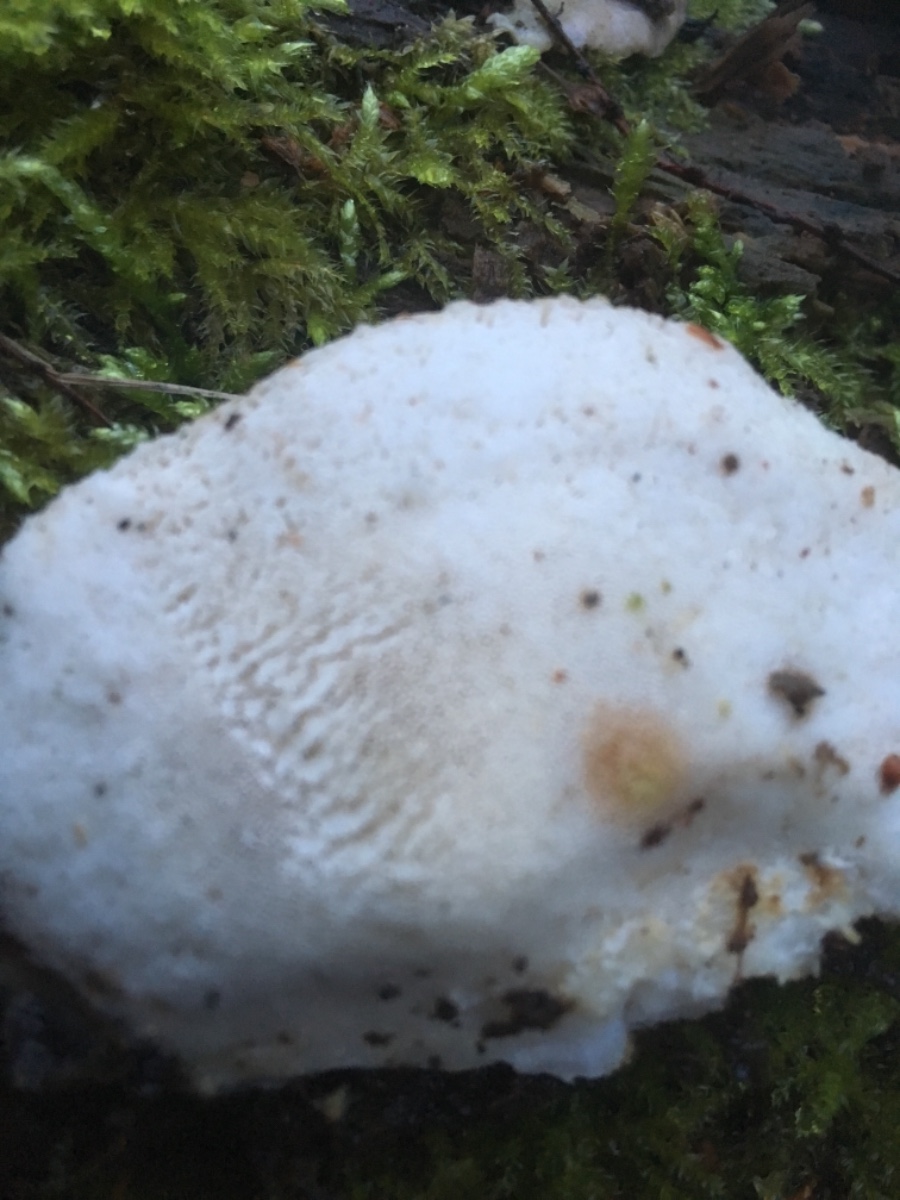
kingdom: Fungi
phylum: Basidiomycota
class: Agaricomycetes
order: Polyporales
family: Incrustoporiaceae
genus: Tyromyces
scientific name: Tyromyces lacteus
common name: mælkehvid kødporesvamp
